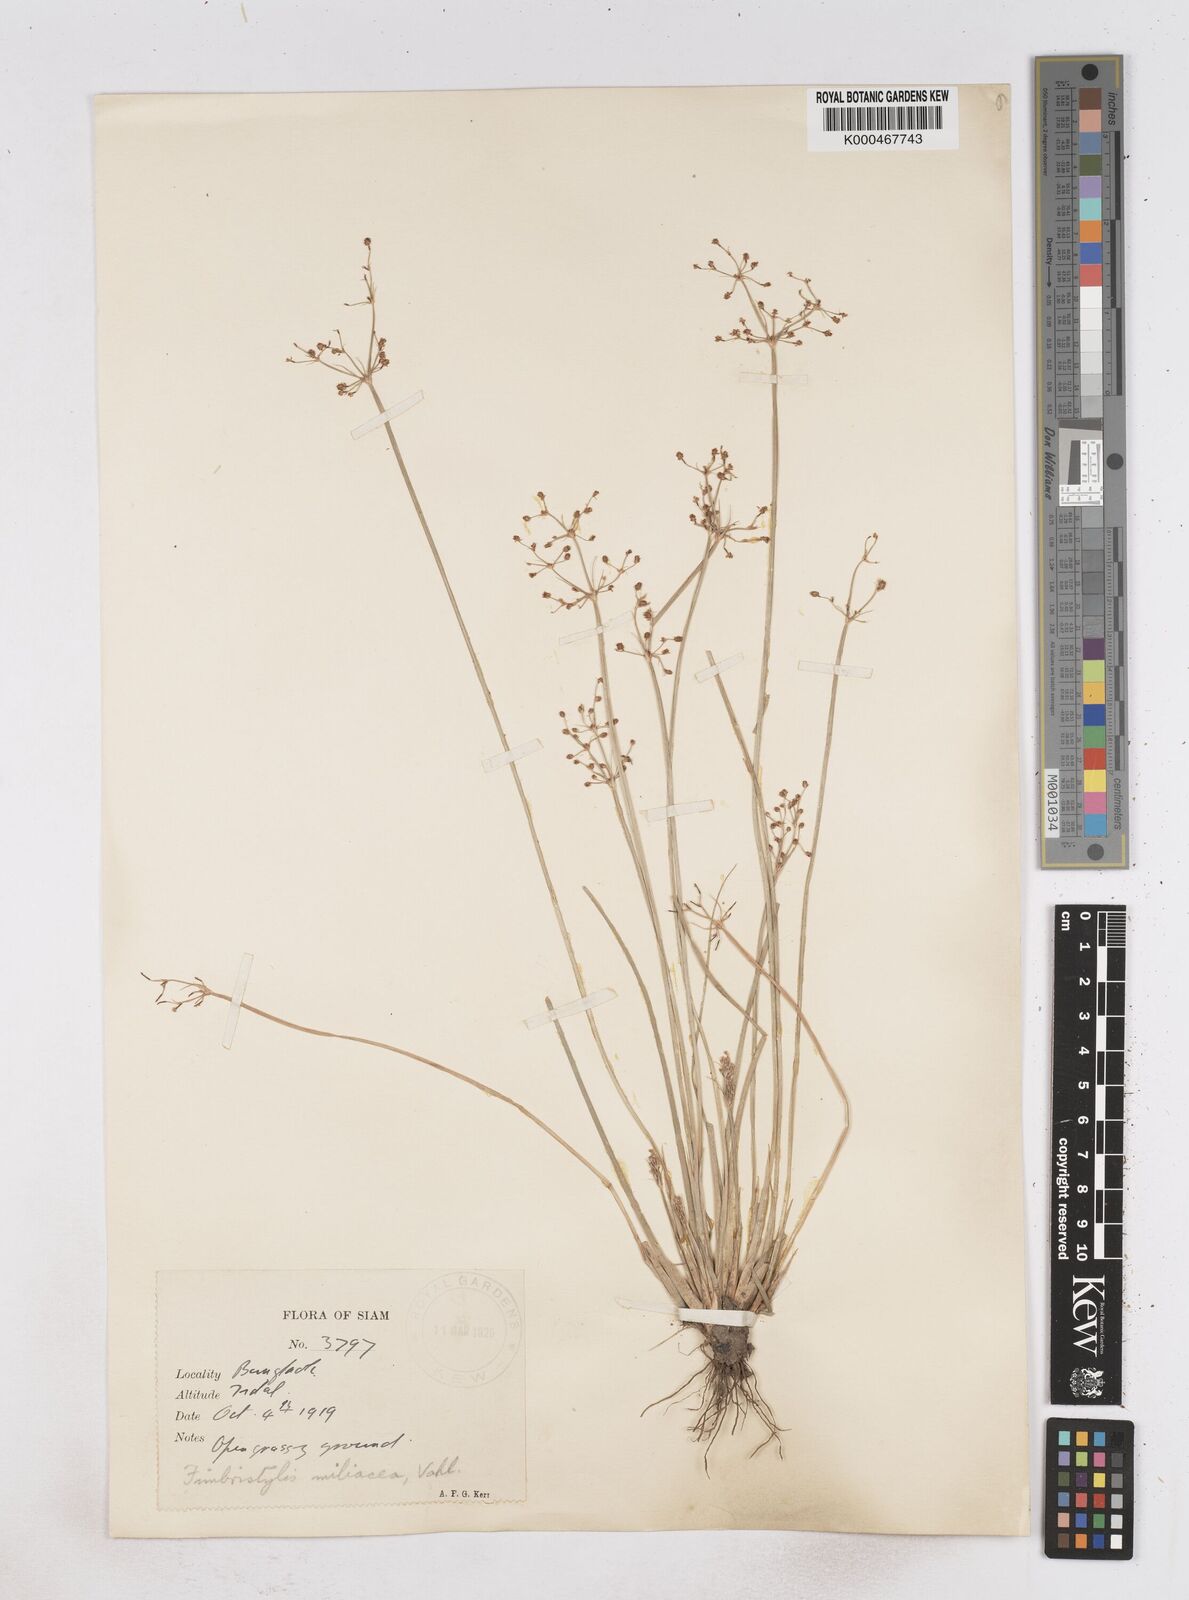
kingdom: Plantae
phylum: Tracheophyta
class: Liliopsida
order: Poales
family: Cyperaceae
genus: Fimbristylis
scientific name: Fimbristylis quinquangularis
